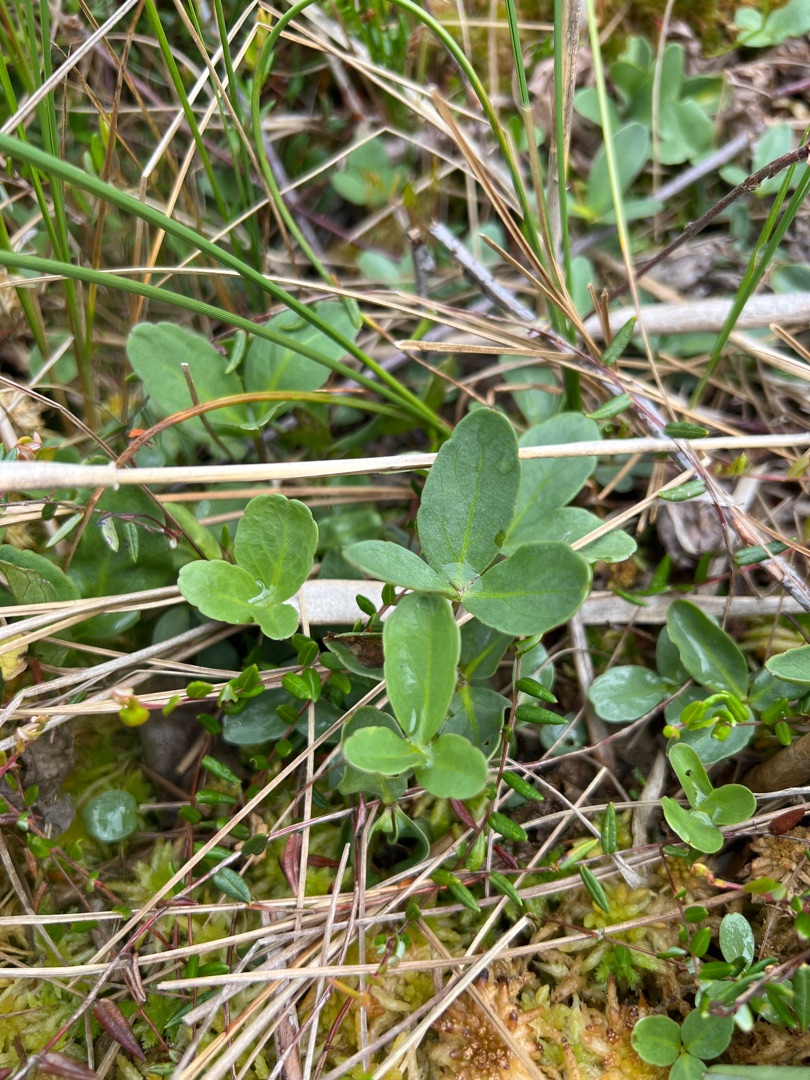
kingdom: Plantae
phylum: Tracheophyta
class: Magnoliopsida
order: Asterales
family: Menyanthaceae
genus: Menyanthes
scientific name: Menyanthes trifoliata
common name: Bukkeblad
